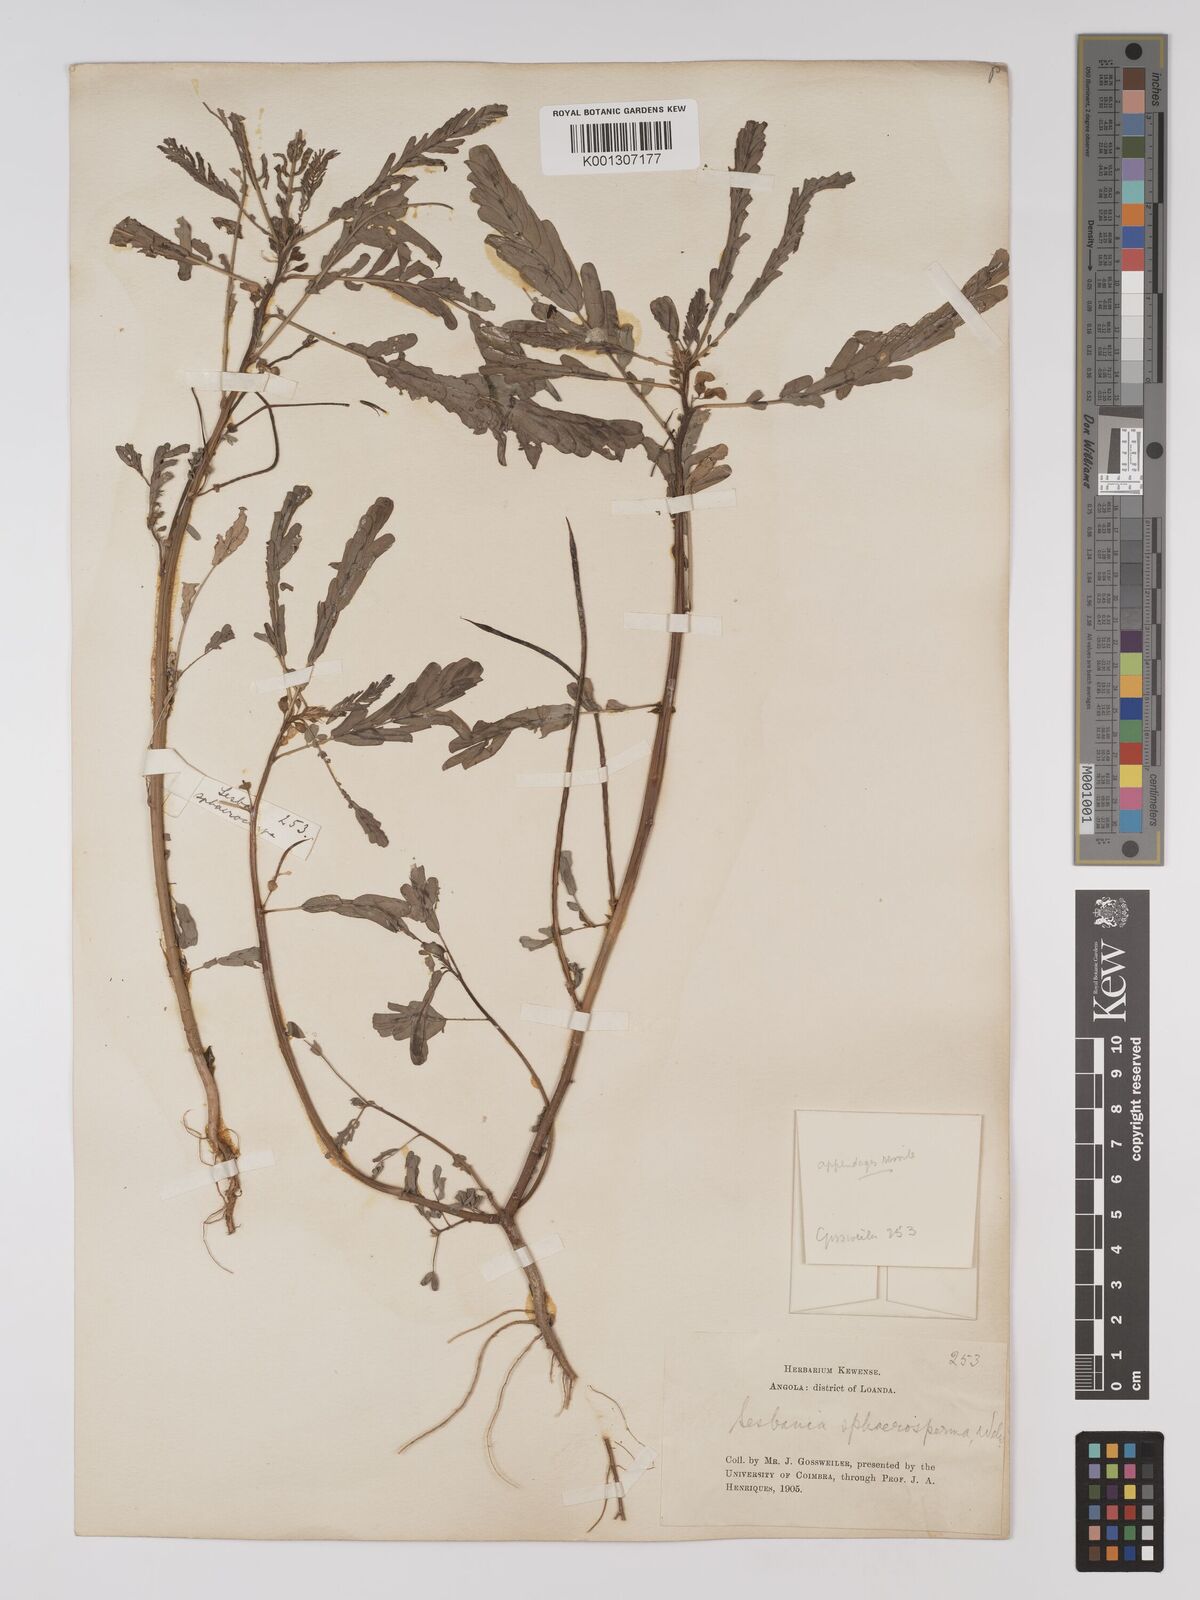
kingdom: Plantae
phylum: Tracheophyta
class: Magnoliopsida
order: Fabales
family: Fabaceae
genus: Sesbania
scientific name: Sesbania
